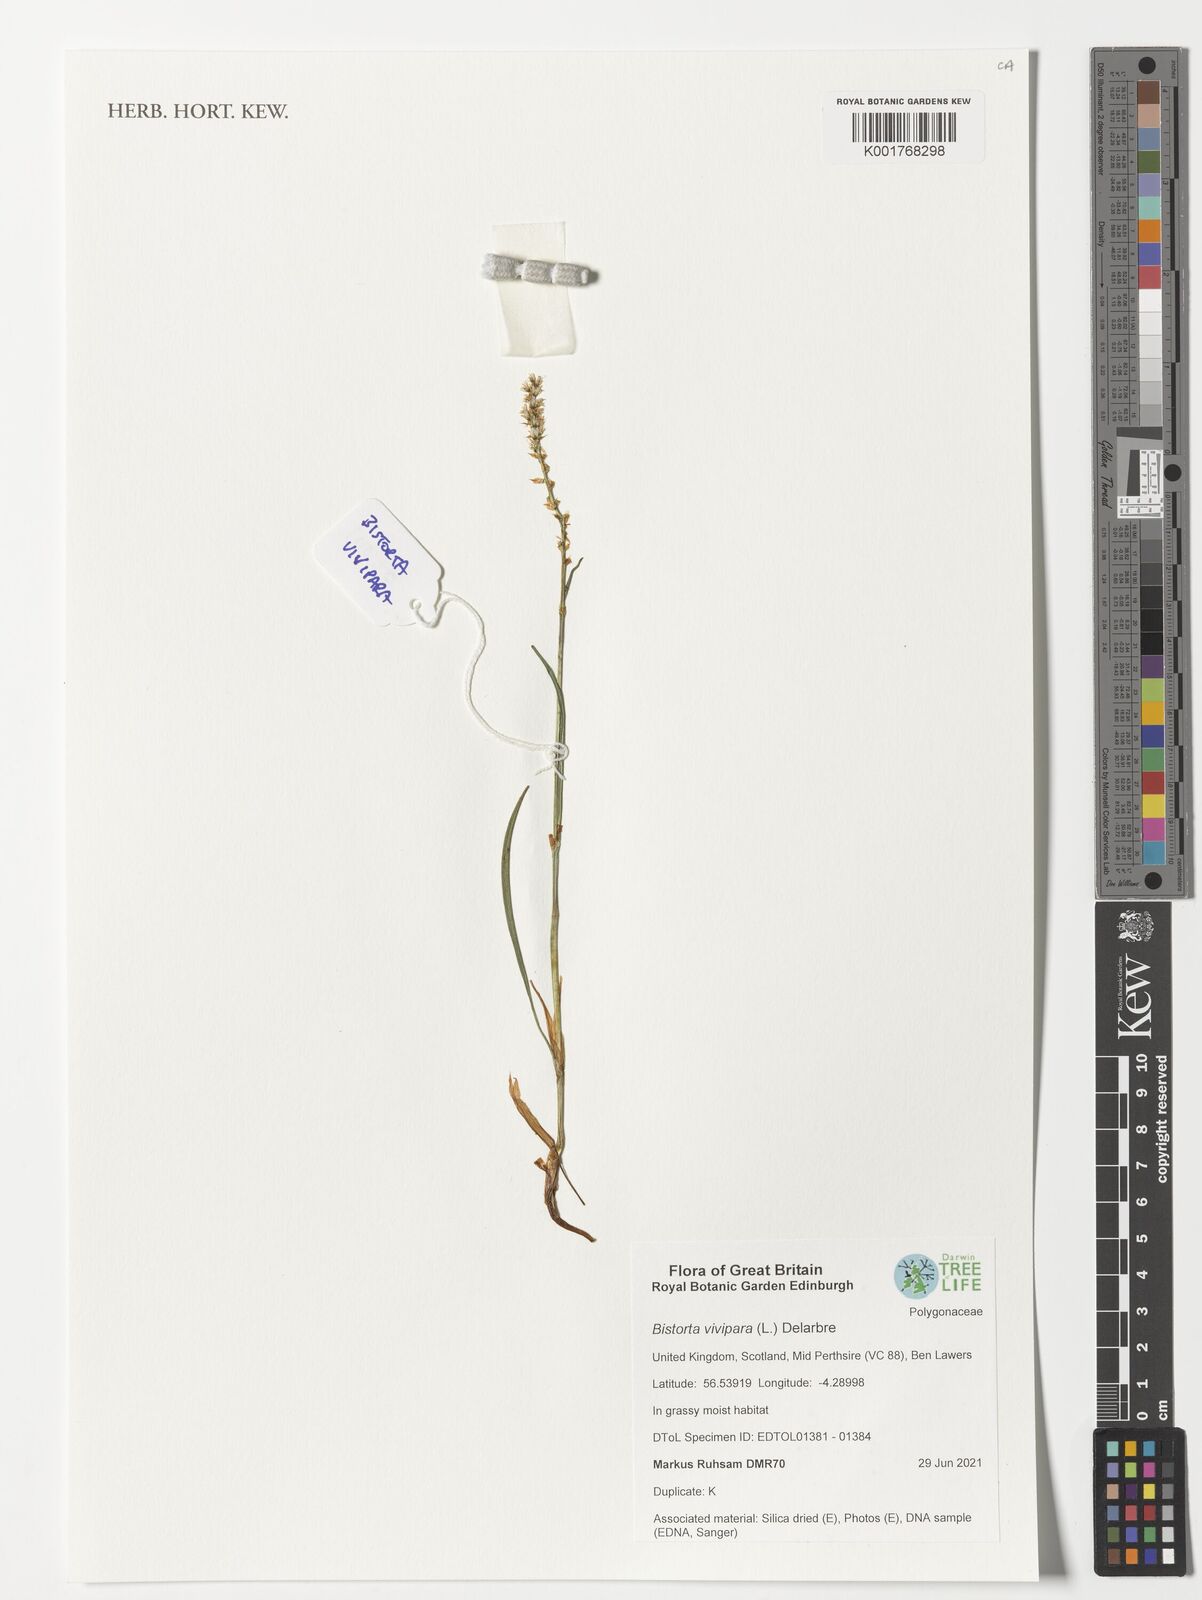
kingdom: Plantae
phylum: Tracheophyta
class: Magnoliopsida
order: Caryophyllales
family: Polygonaceae
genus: Bistorta
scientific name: Bistorta vivipara
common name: Alpine bistort
